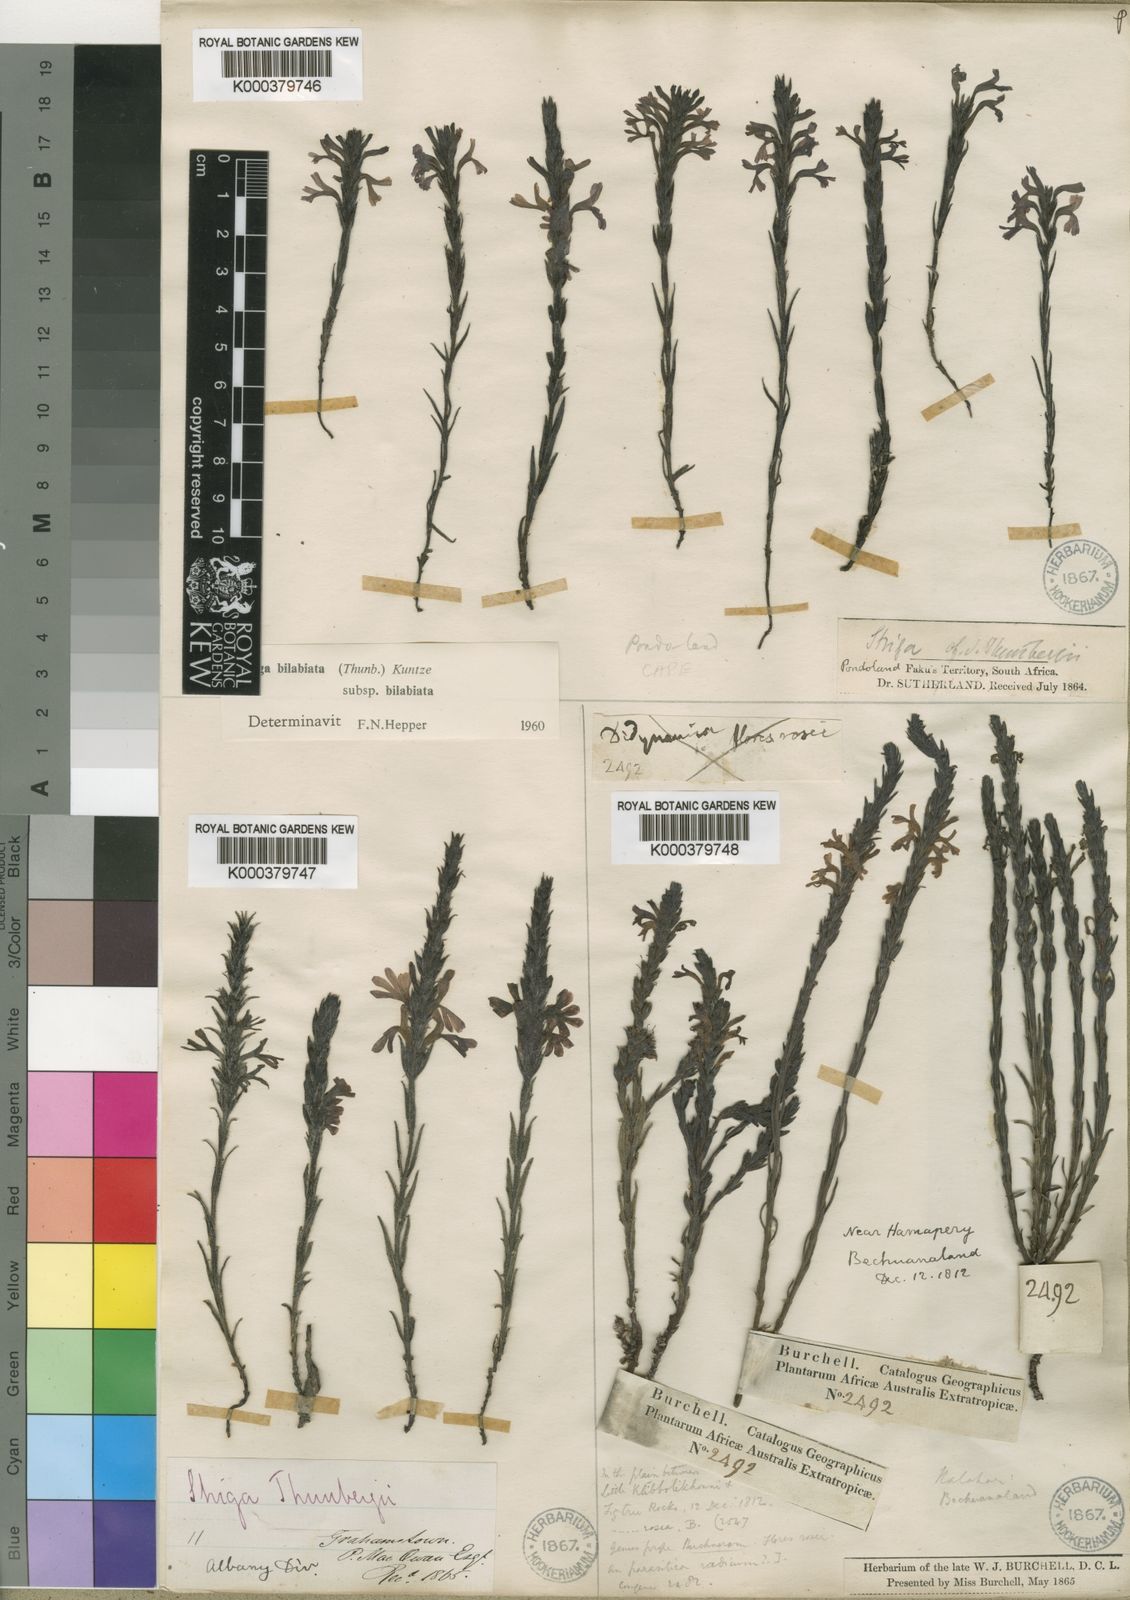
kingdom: Plantae
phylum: Tracheophyta
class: Magnoliopsida
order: Lamiales
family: Orobanchaceae
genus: Striga
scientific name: Striga bilabiata
